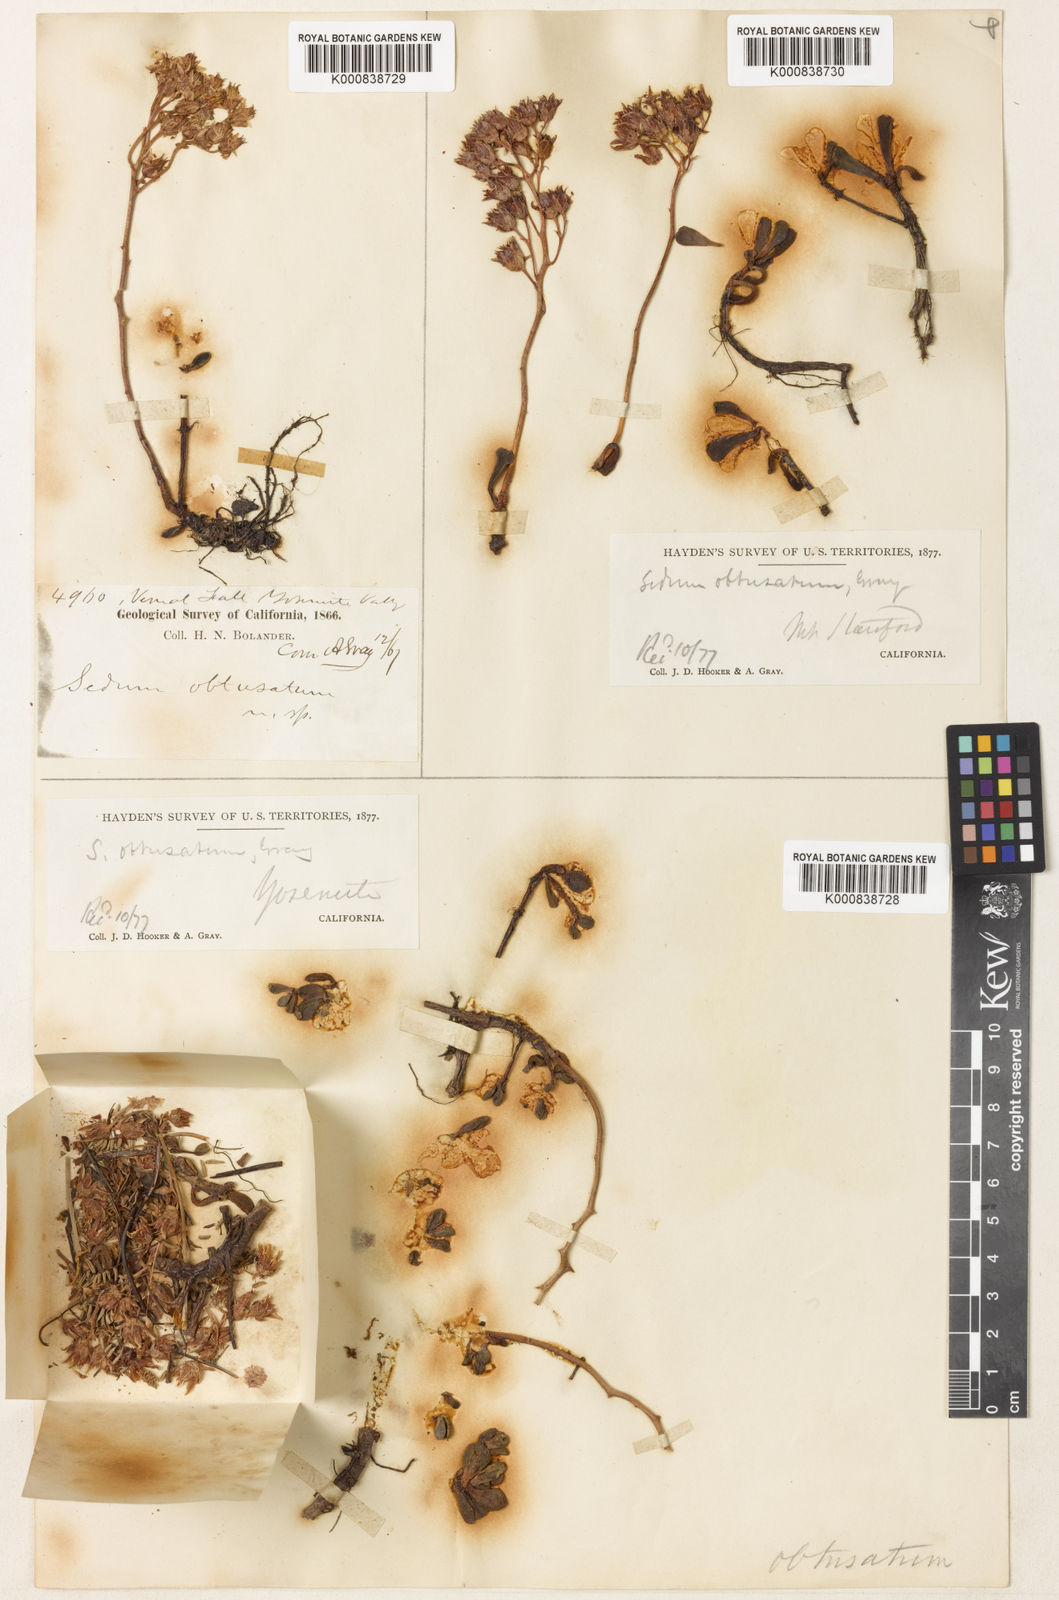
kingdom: Plantae
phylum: Tracheophyta
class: Magnoliopsida
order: Saxifragales
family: Crassulaceae
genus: Sedum
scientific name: Sedum obtusatum
